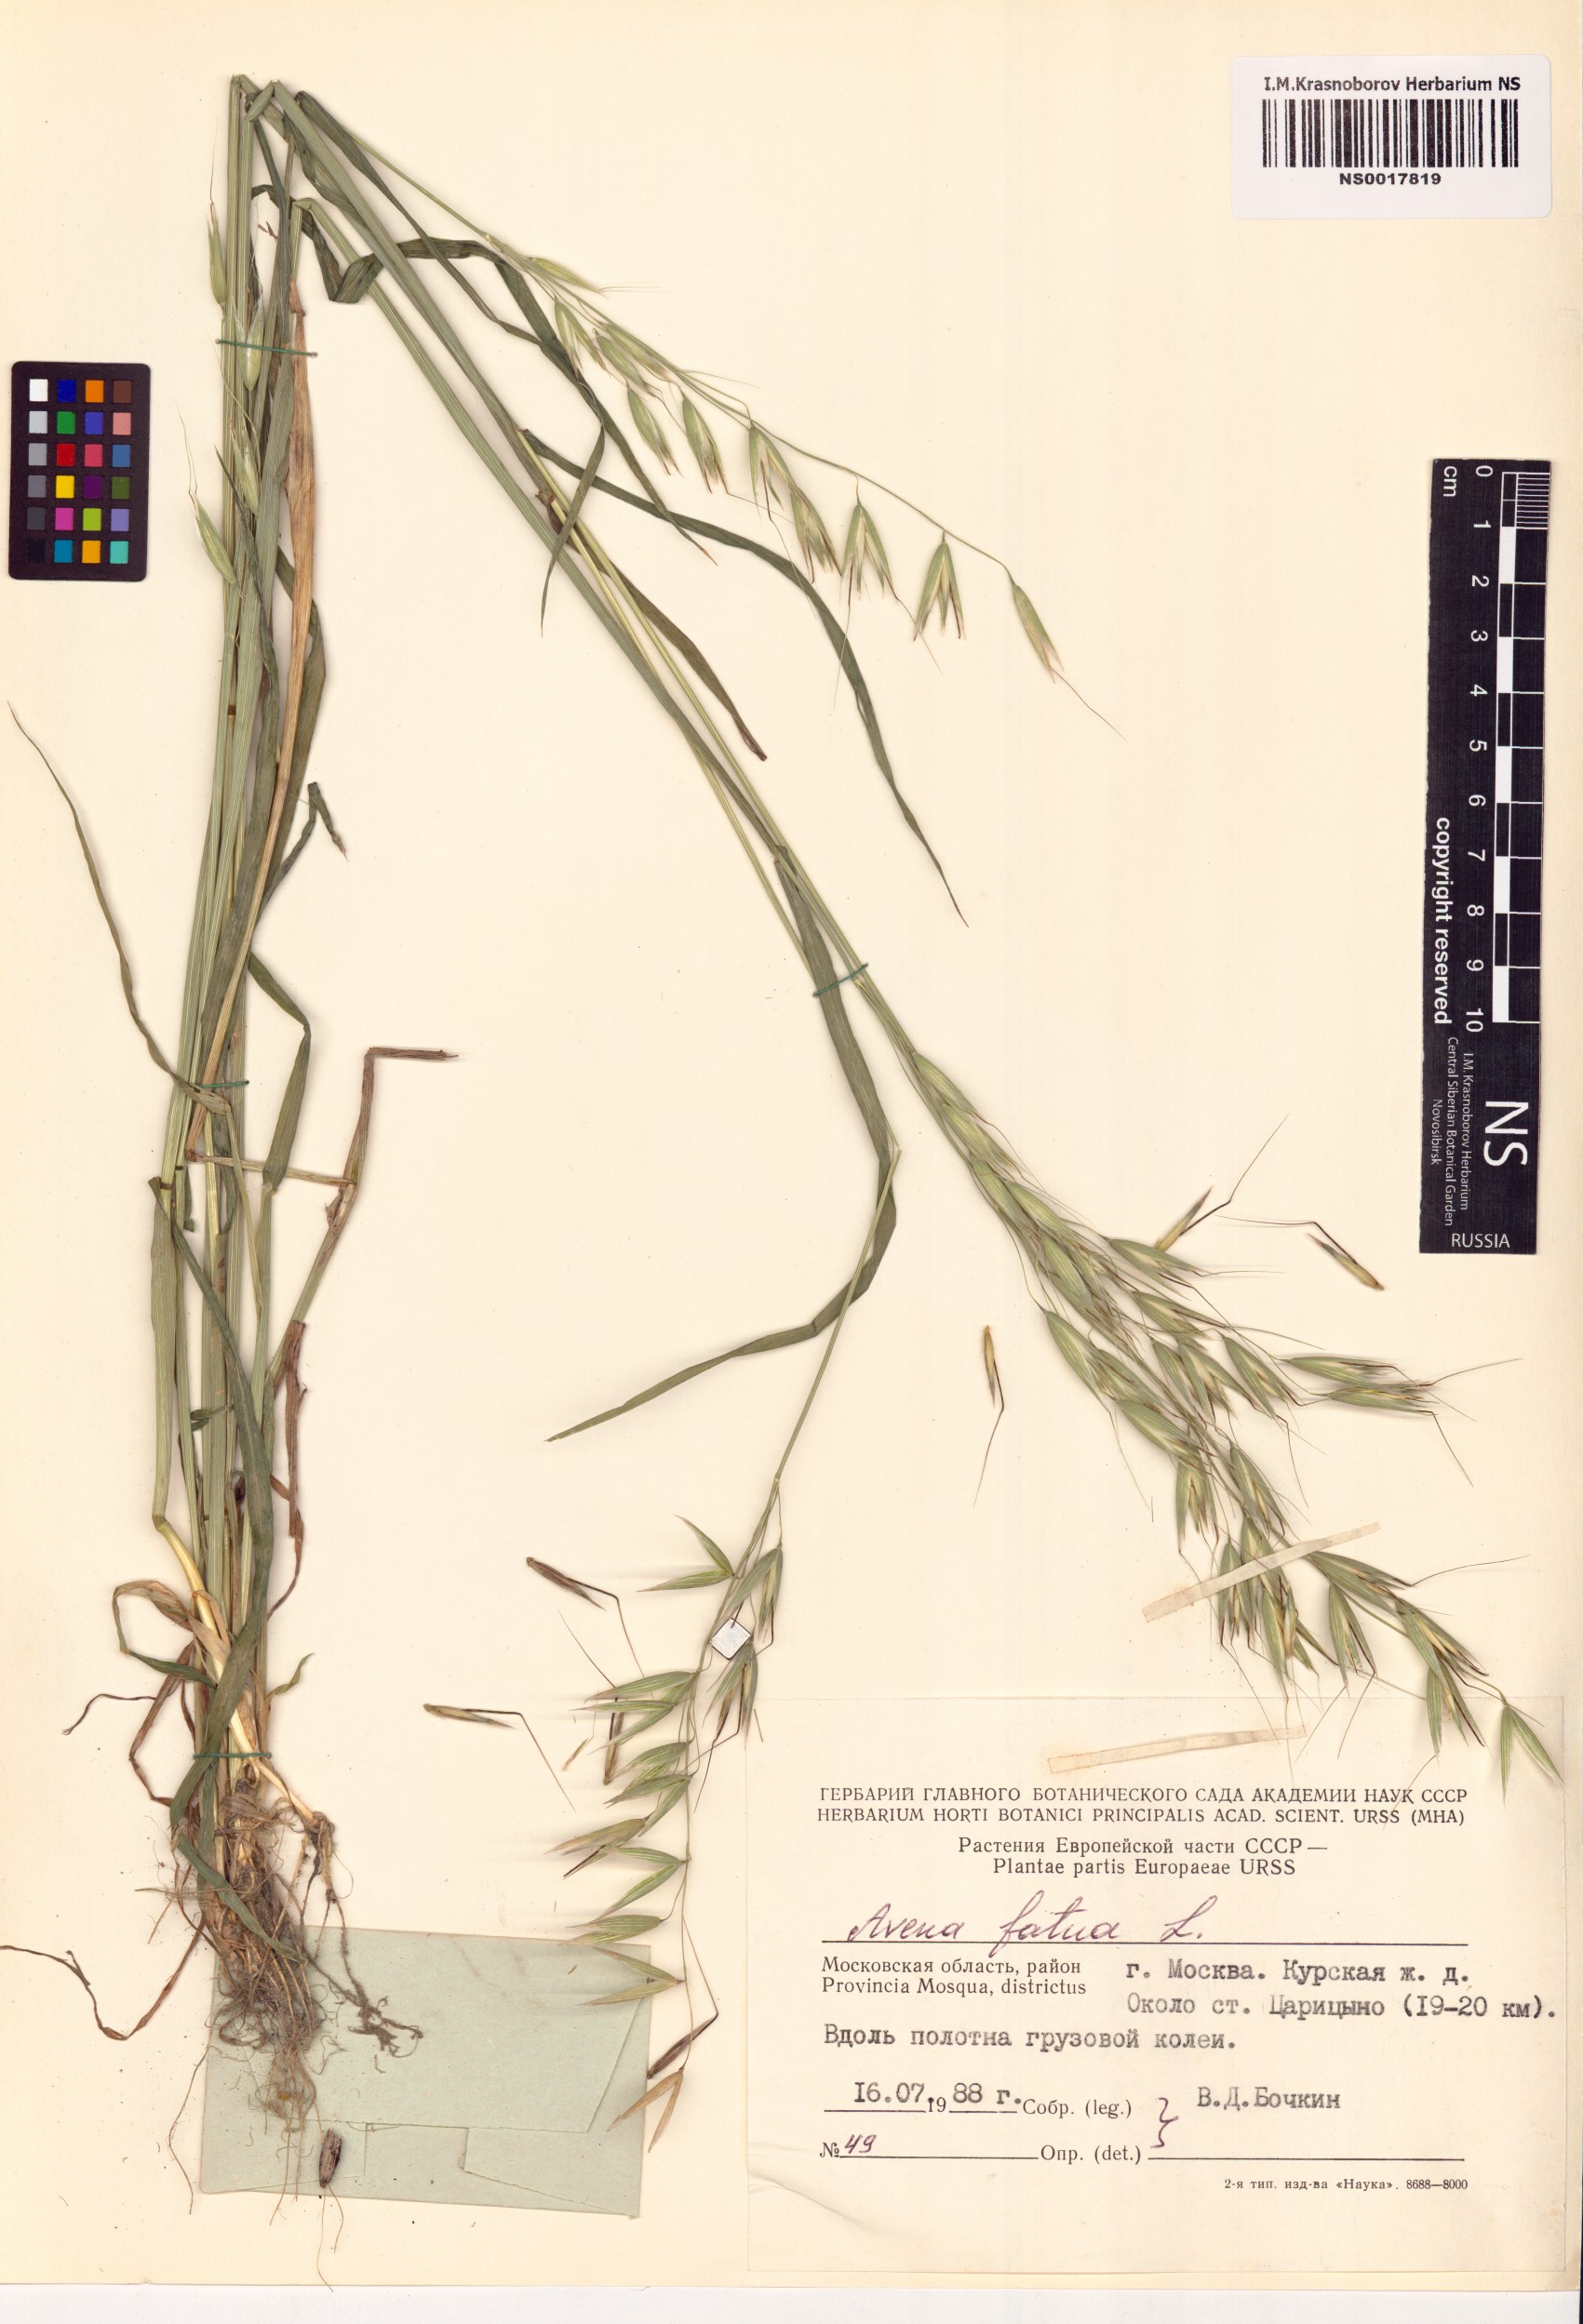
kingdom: Plantae
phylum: Tracheophyta
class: Liliopsida
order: Poales
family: Poaceae
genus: Avena
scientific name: Avena fatua
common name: Wild oat
